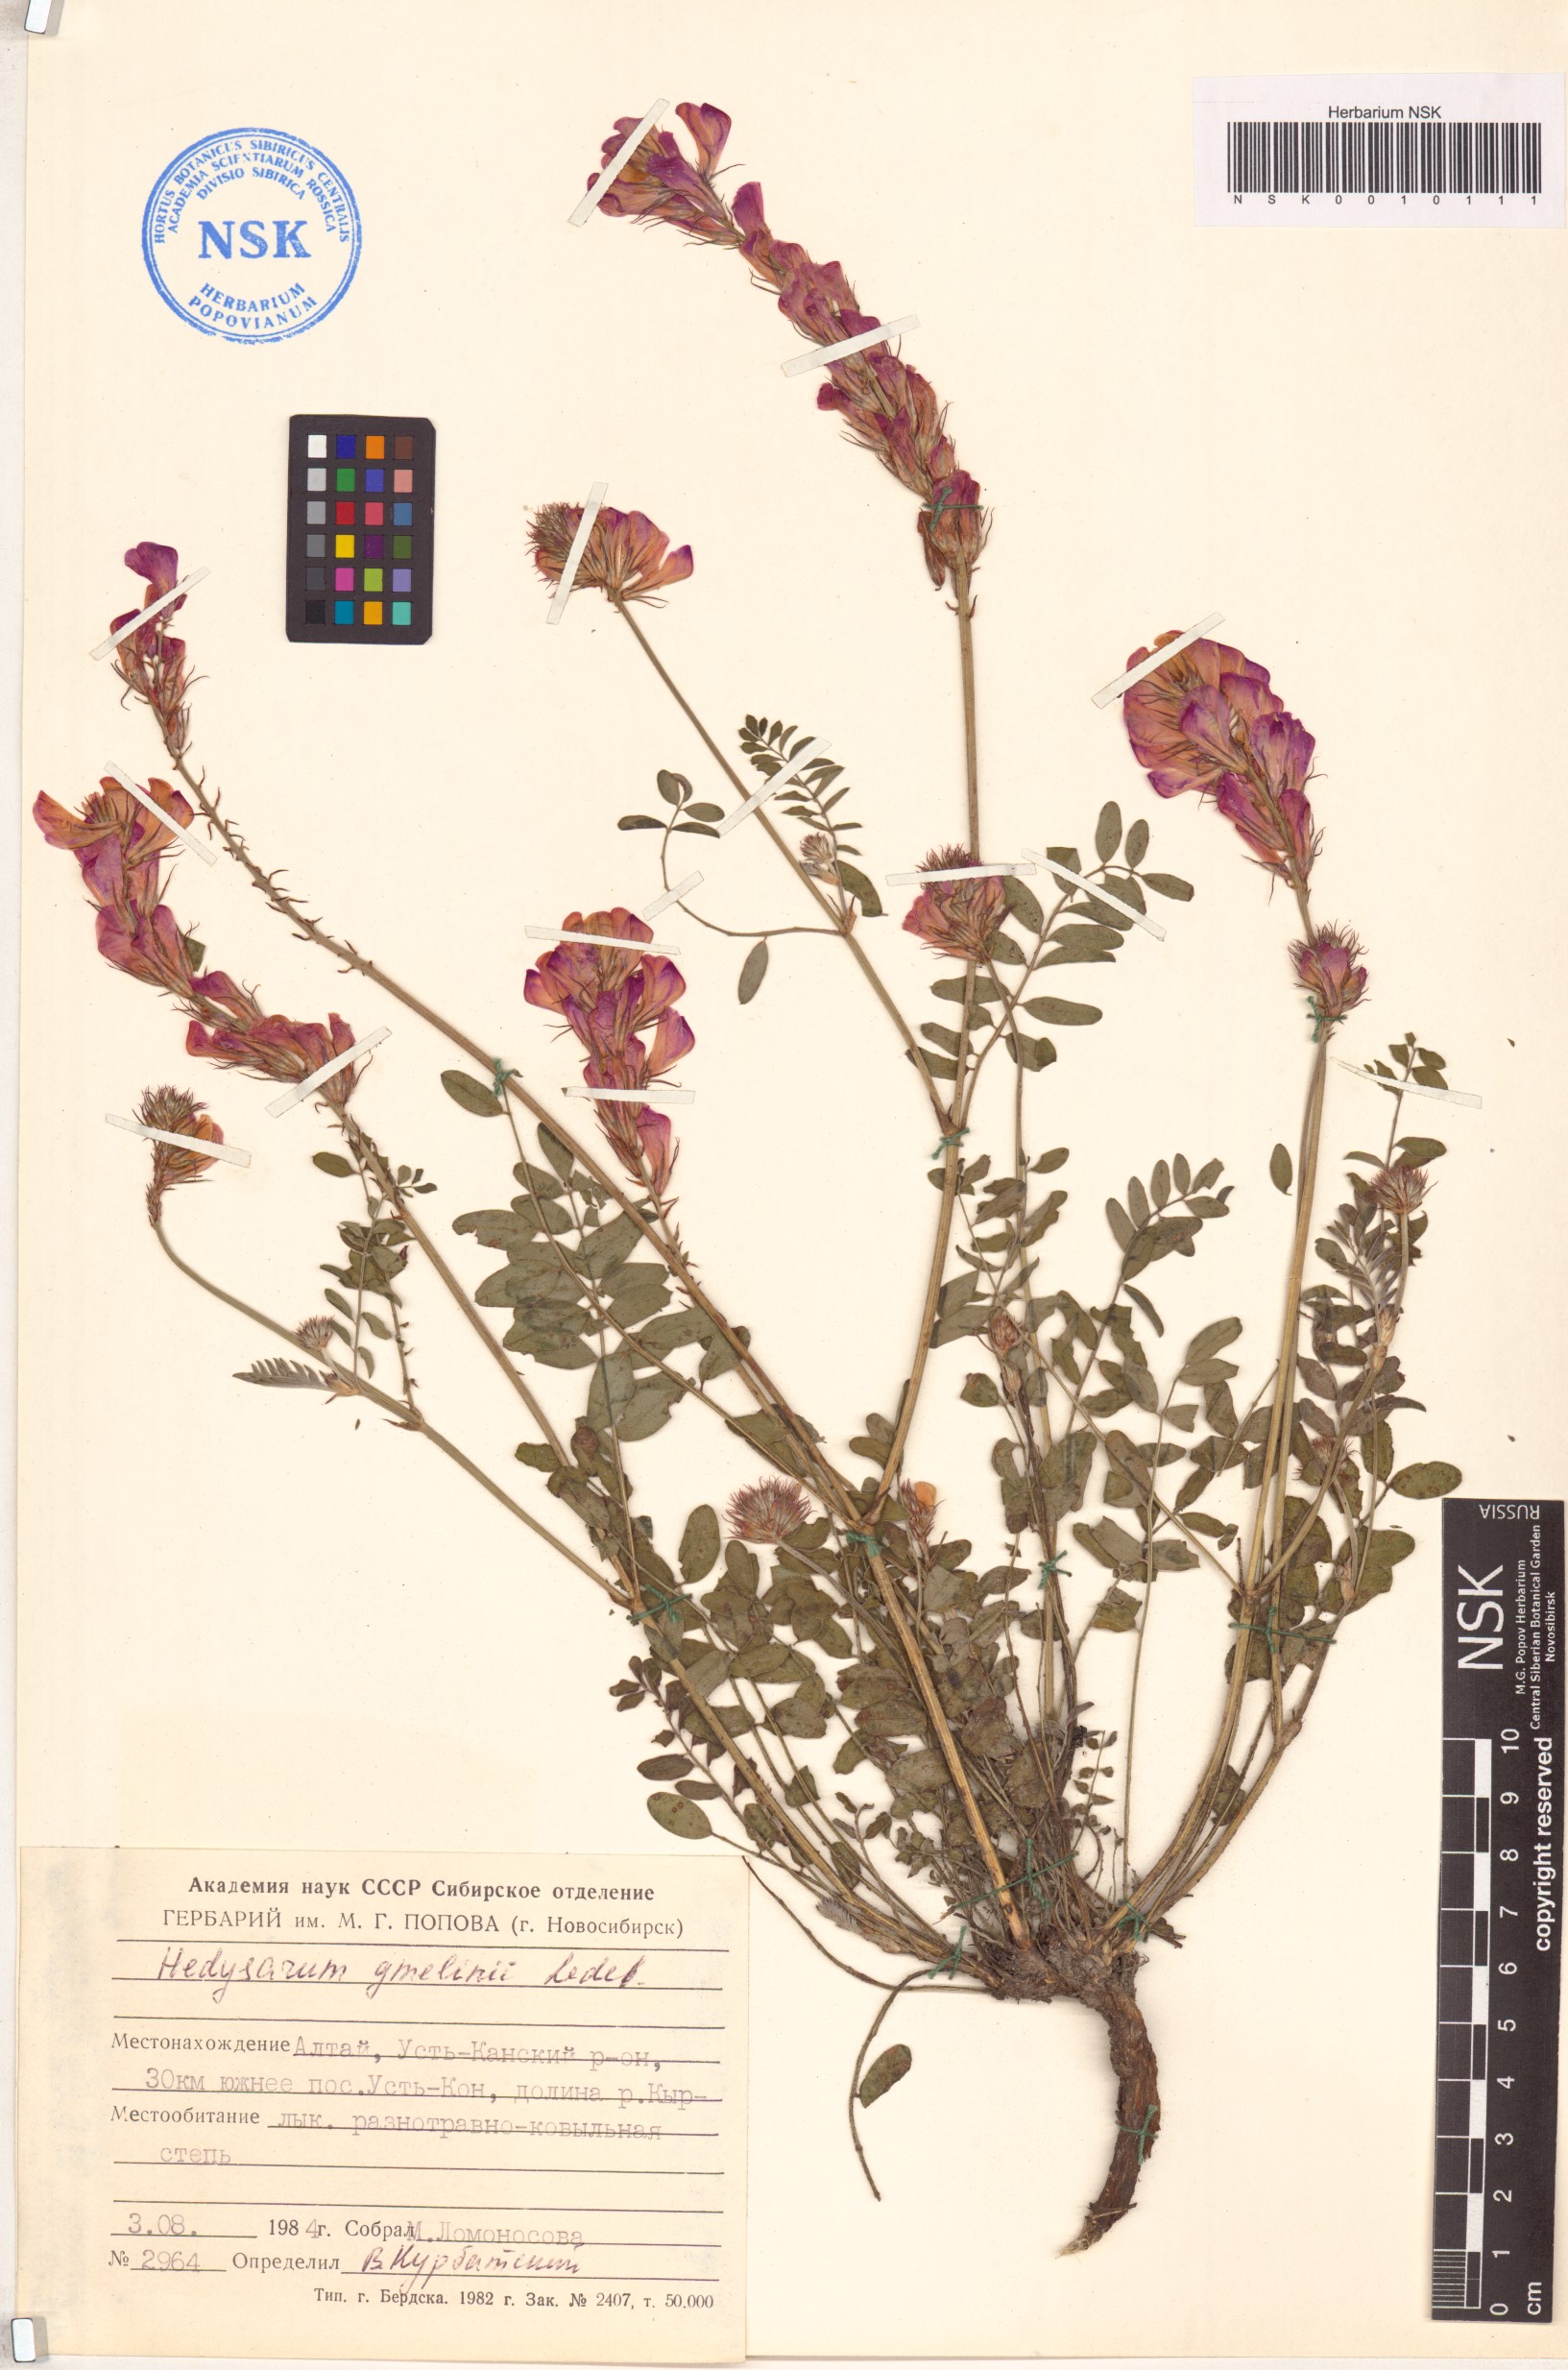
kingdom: Plantae
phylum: Tracheophyta
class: Magnoliopsida
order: Fabales
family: Fabaceae
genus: Hedysarum
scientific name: Hedysarum gmelinii
